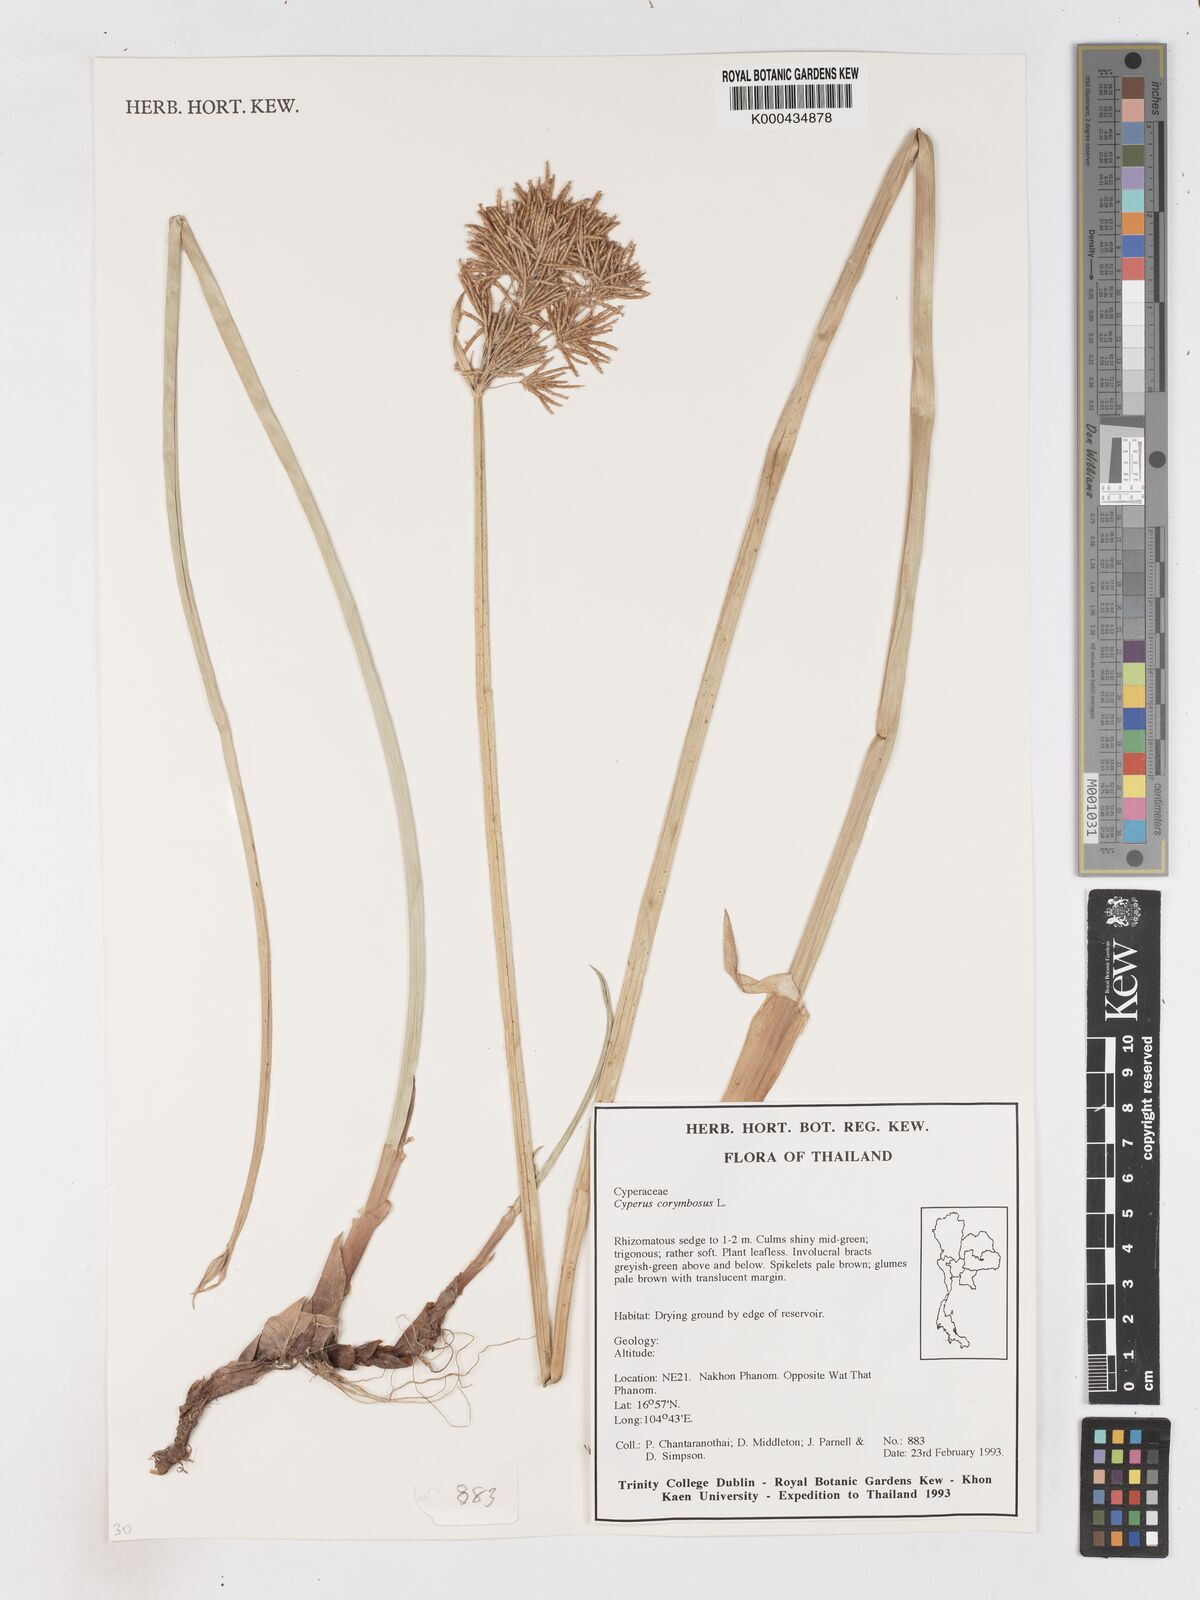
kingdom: Plantae
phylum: Tracheophyta
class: Liliopsida
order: Poales
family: Cyperaceae
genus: Cyperus
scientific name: Cyperus corymbosus
